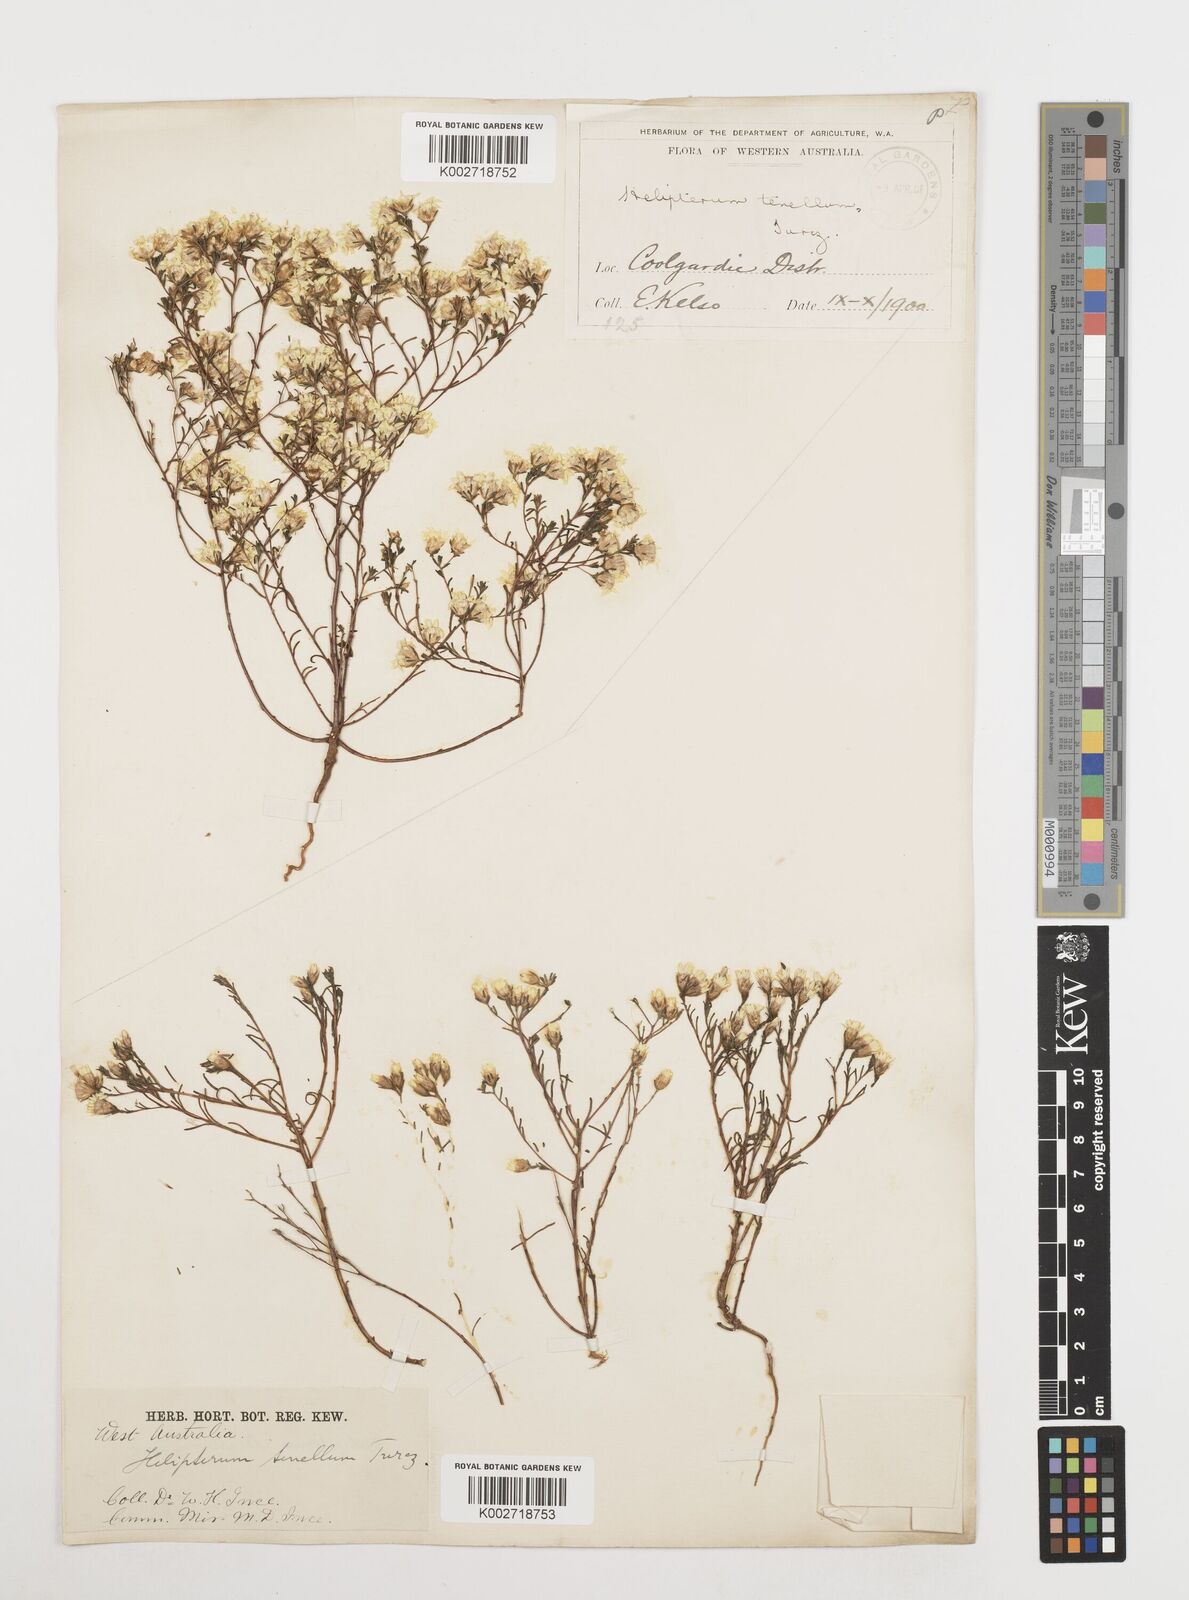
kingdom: Plantae
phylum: Tracheophyta
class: Magnoliopsida
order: Asterales
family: Asteraceae
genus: Erymophyllum
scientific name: Erymophyllum tenellum
